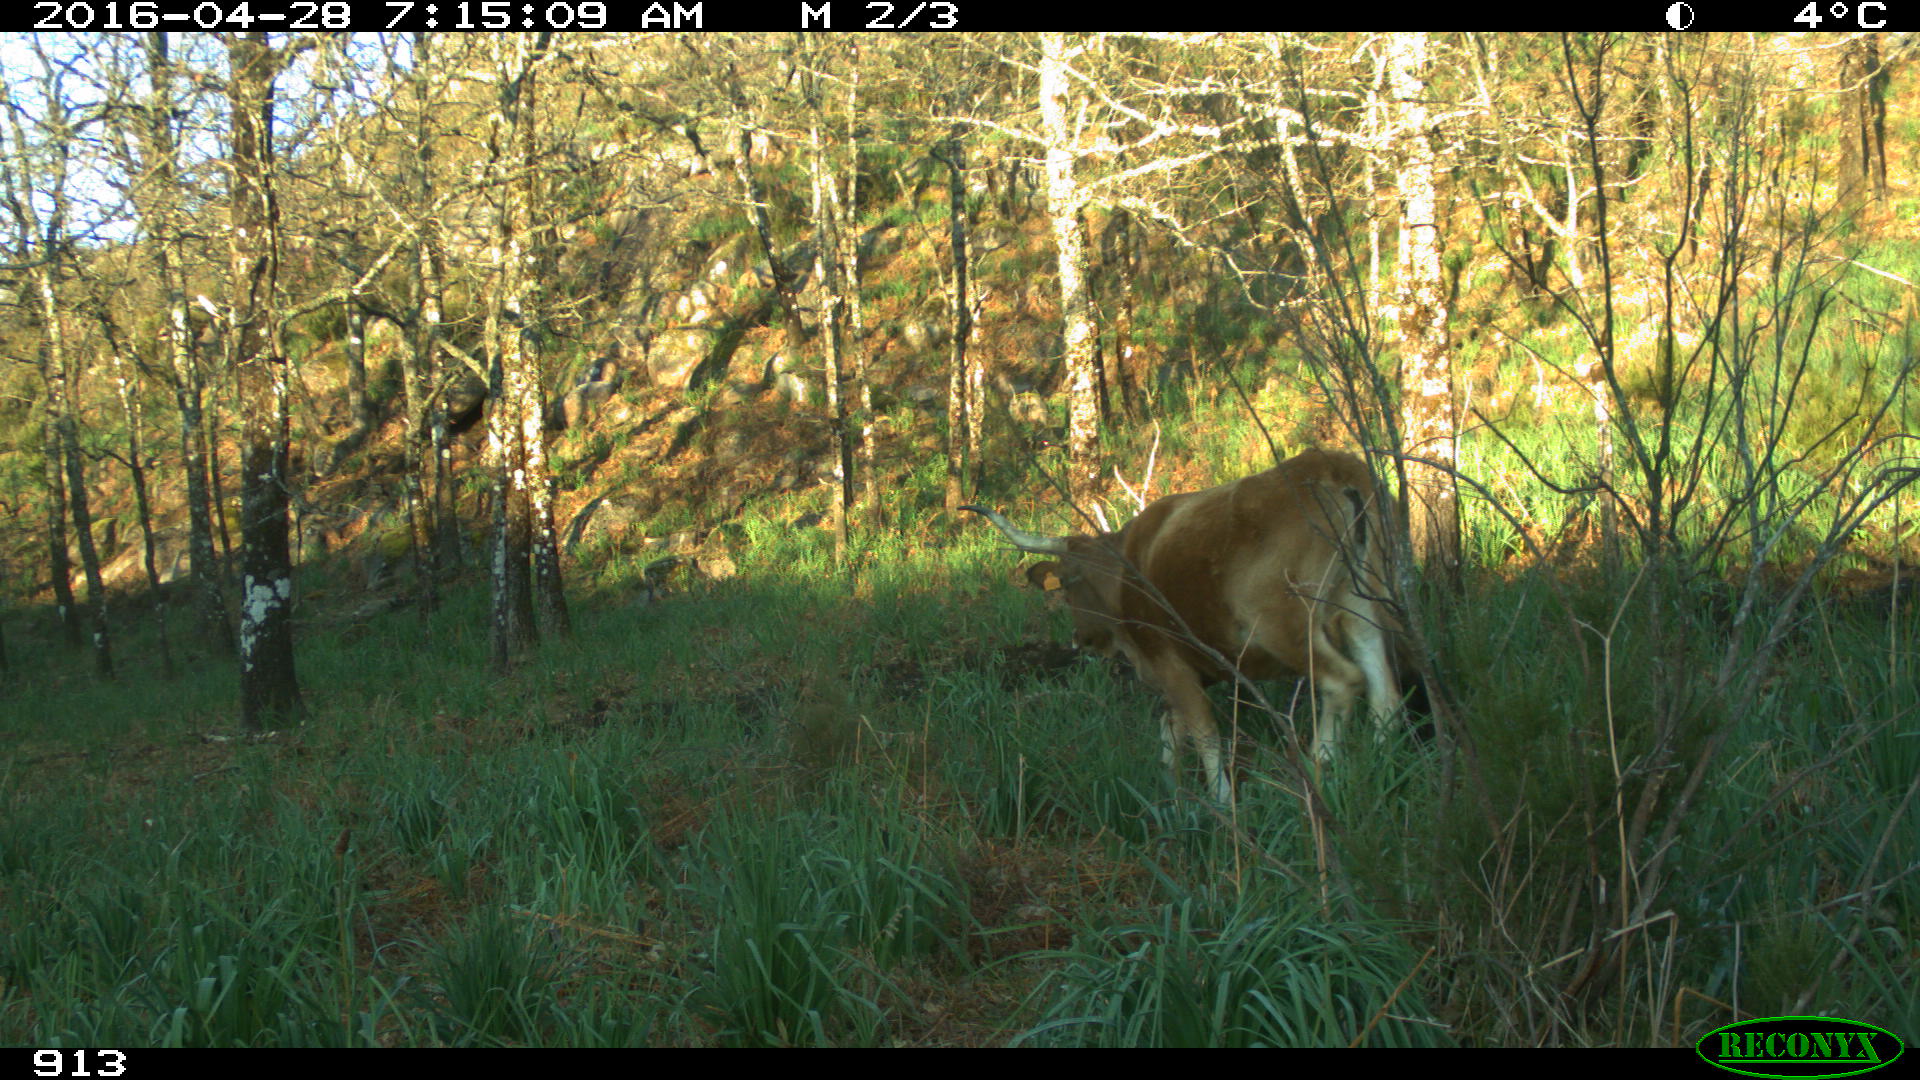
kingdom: Animalia
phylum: Chordata
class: Mammalia
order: Artiodactyla
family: Bovidae
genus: Bos
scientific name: Bos taurus
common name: Domesticated cattle
